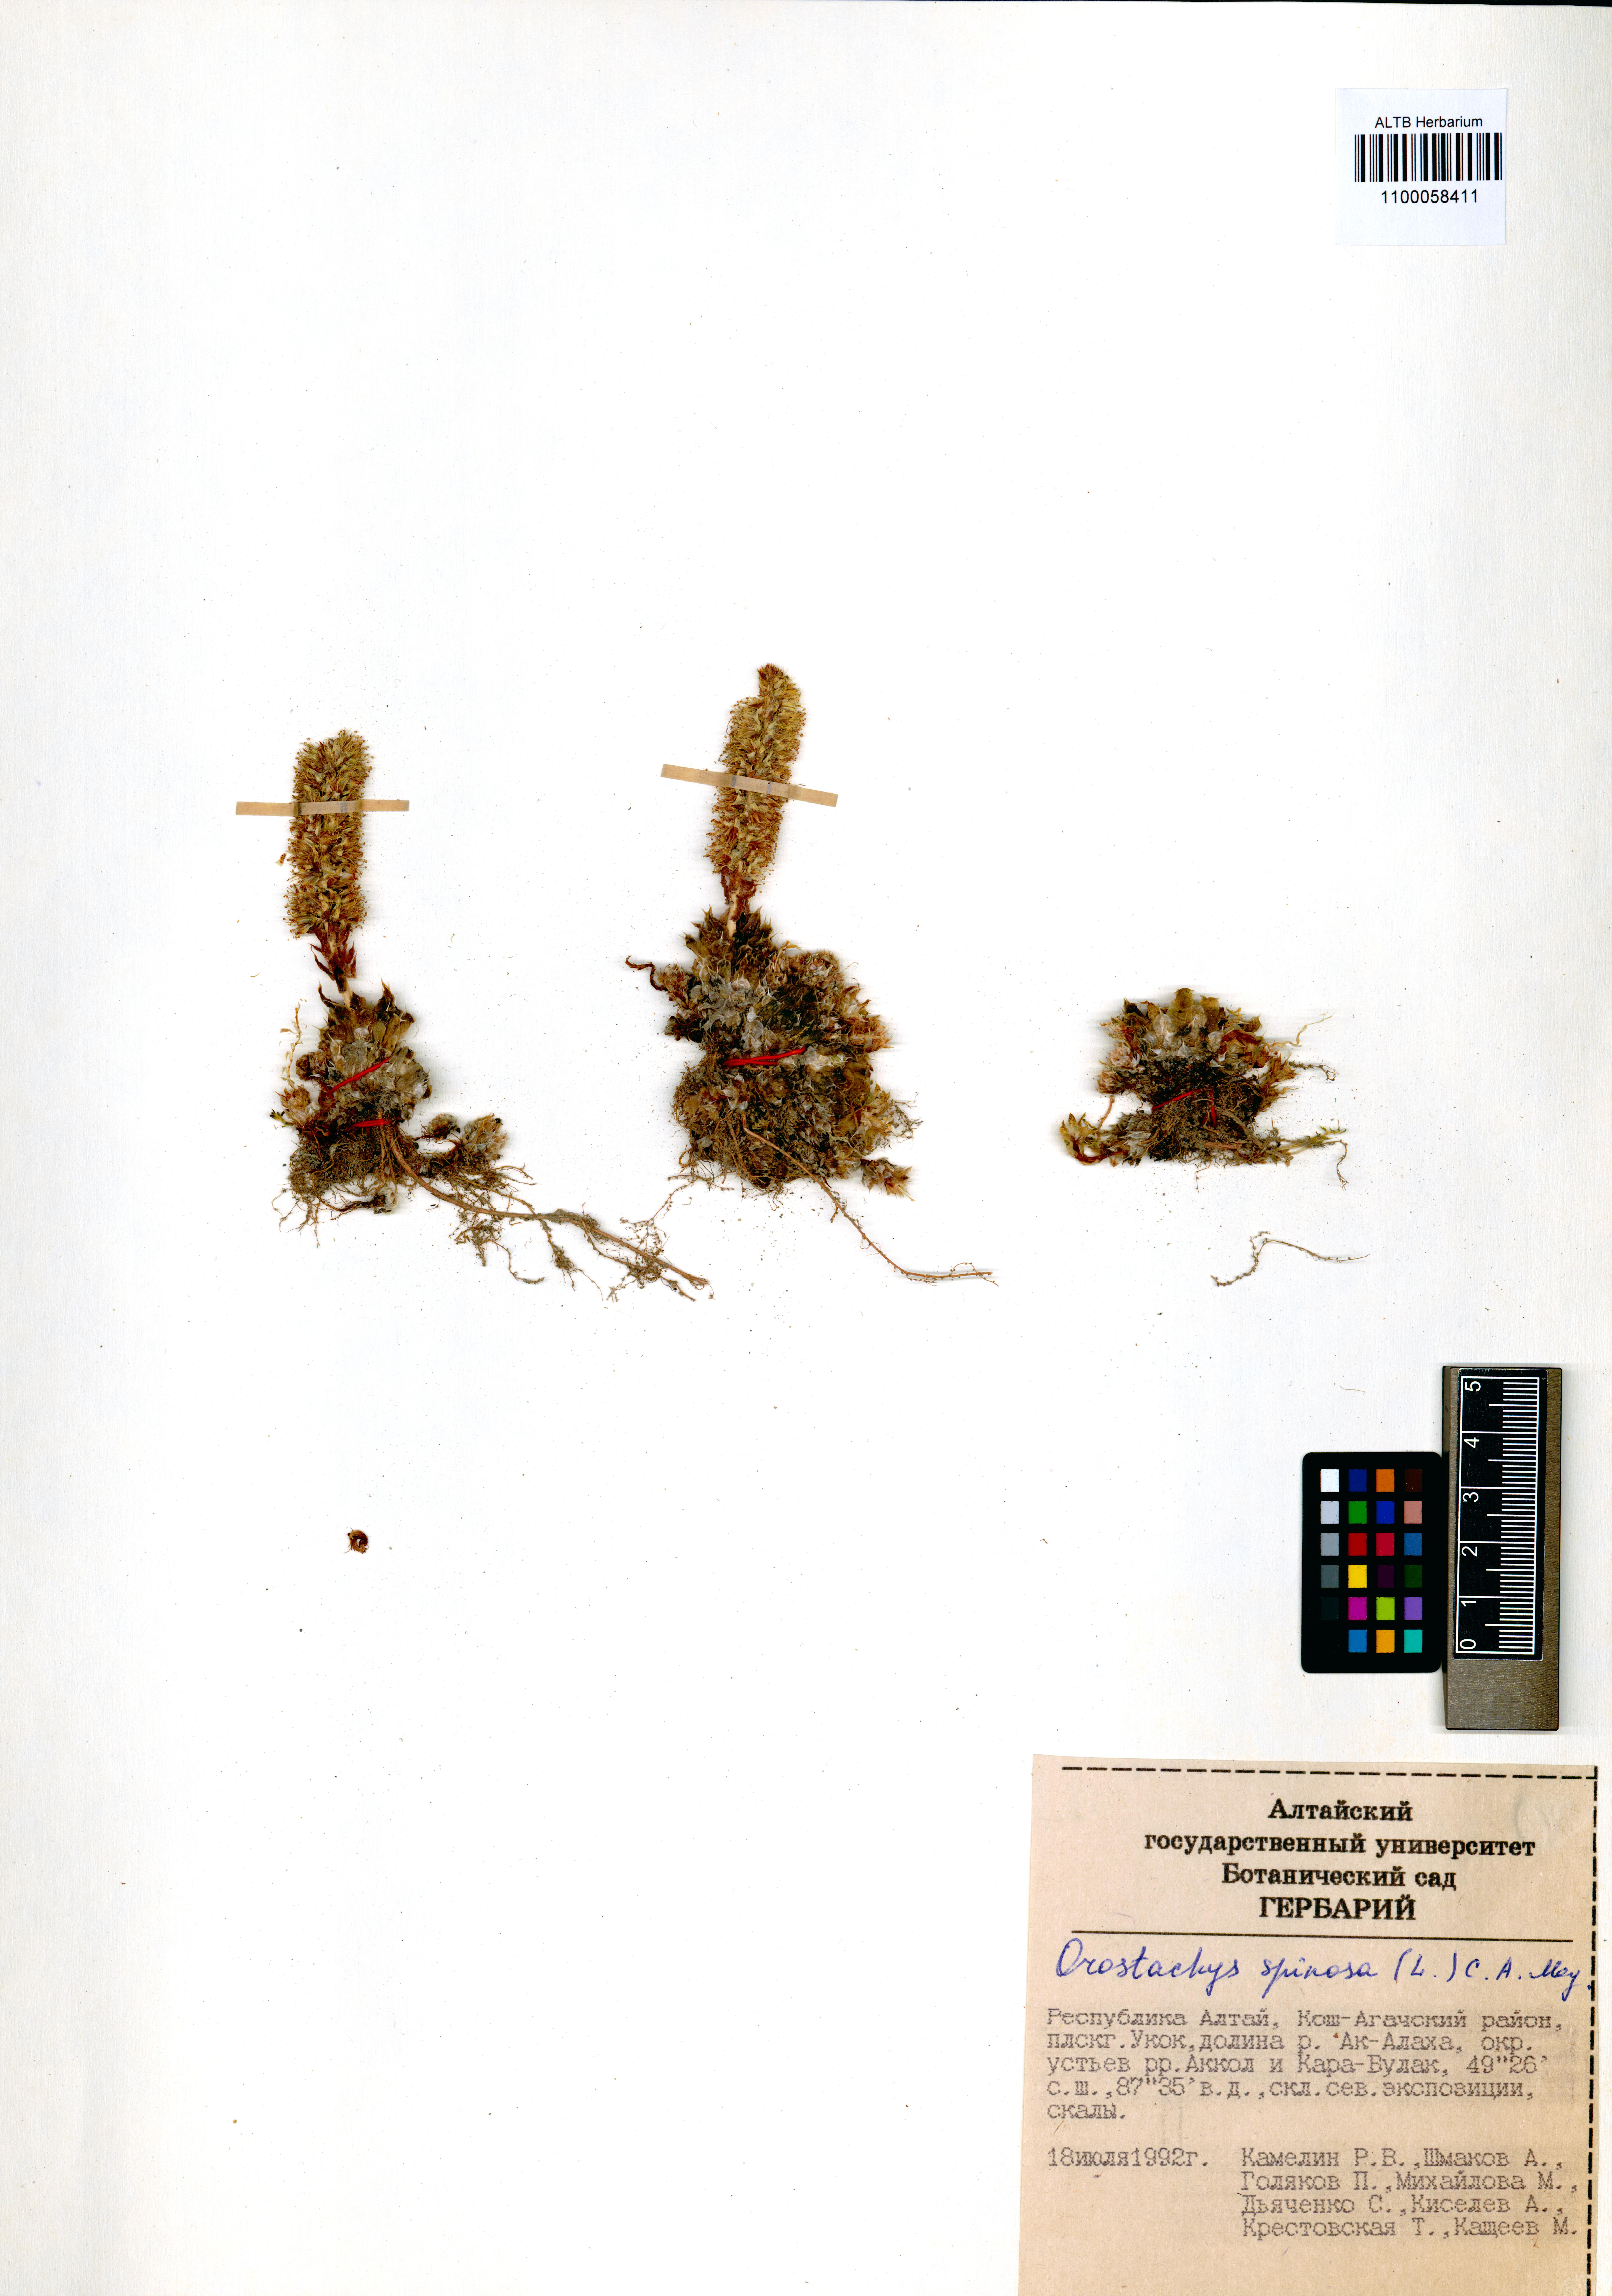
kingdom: Plantae
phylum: Tracheophyta
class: Magnoliopsida
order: Saxifragales
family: Crassulaceae
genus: Orostachys
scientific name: Orostachys spinosa
